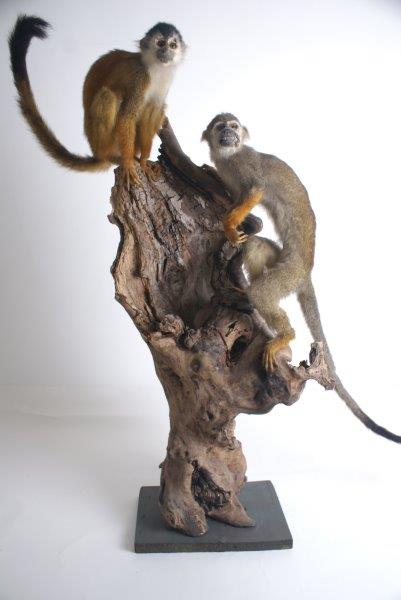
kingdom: Animalia
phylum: Chordata
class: Mammalia
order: Primates
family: Cebidae
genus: Saimiri
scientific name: Saimiri sciureus
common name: Common Squirrel Monkey
